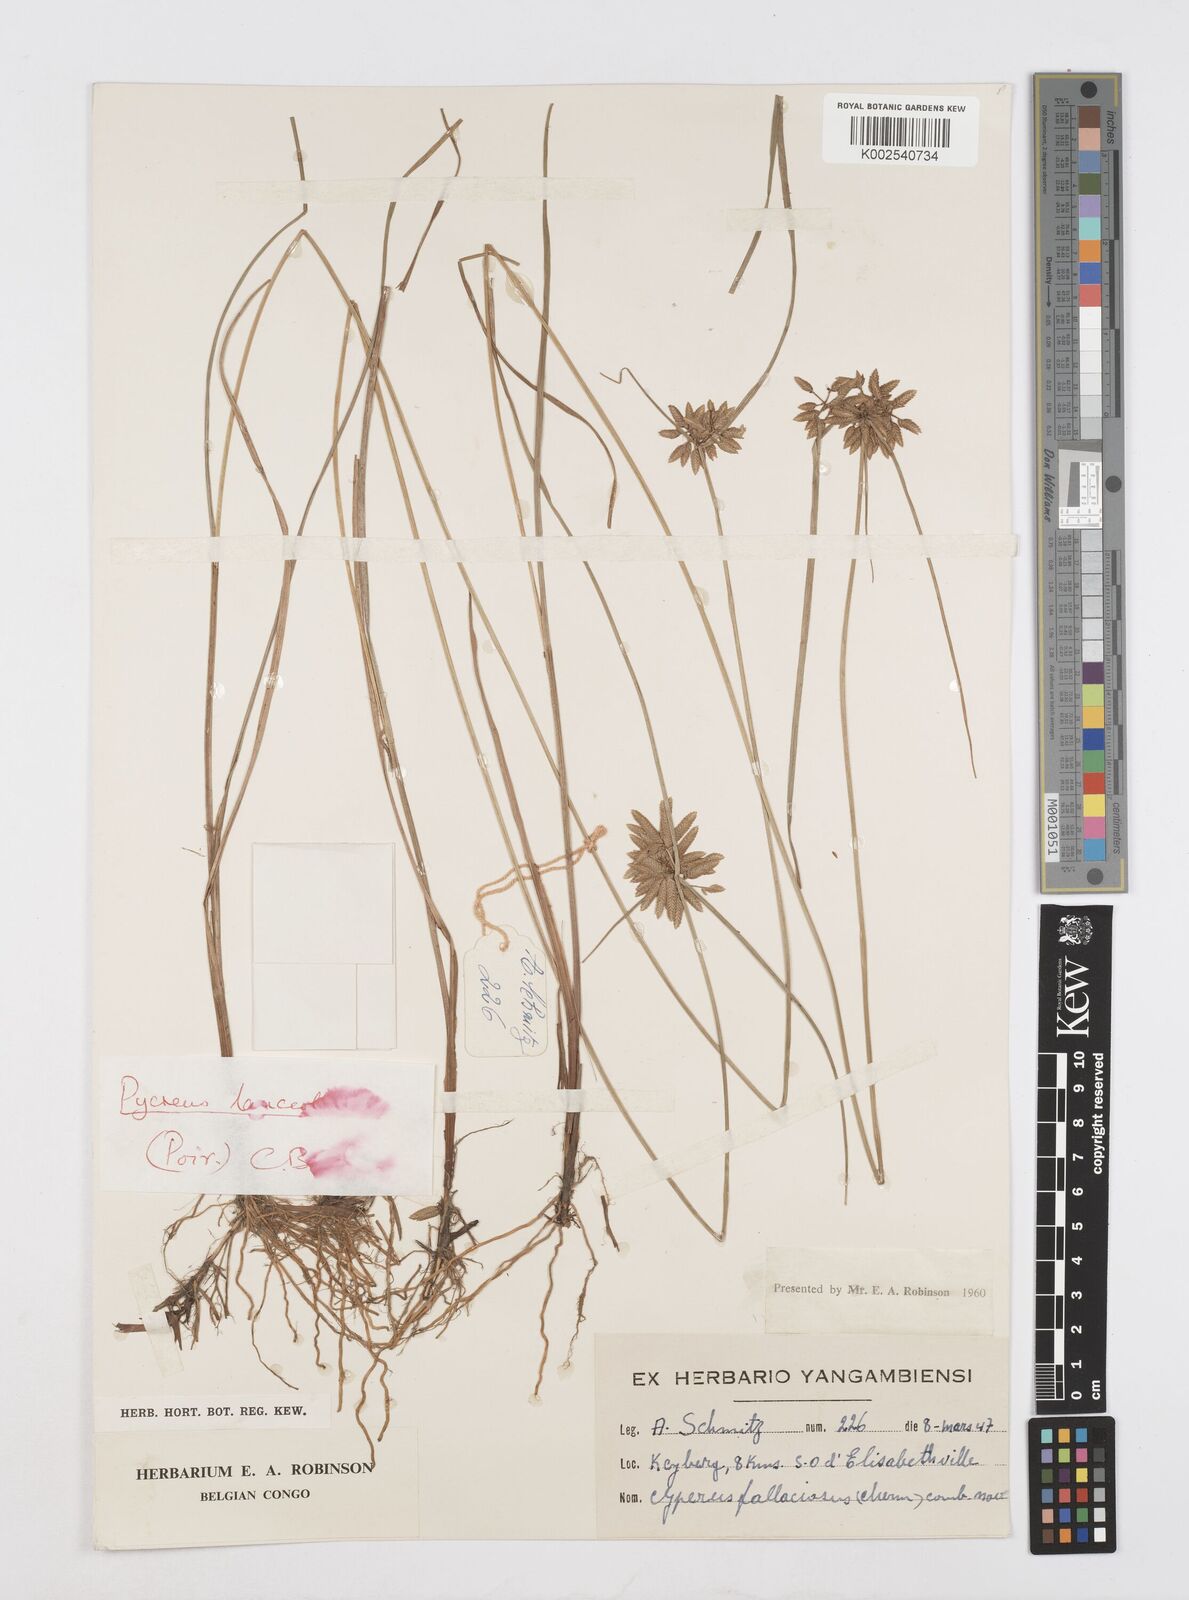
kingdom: Plantae
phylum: Tracheophyta
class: Liliopsida
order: Poales
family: Cyperaceae
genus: Cyperus
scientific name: Cyperus
